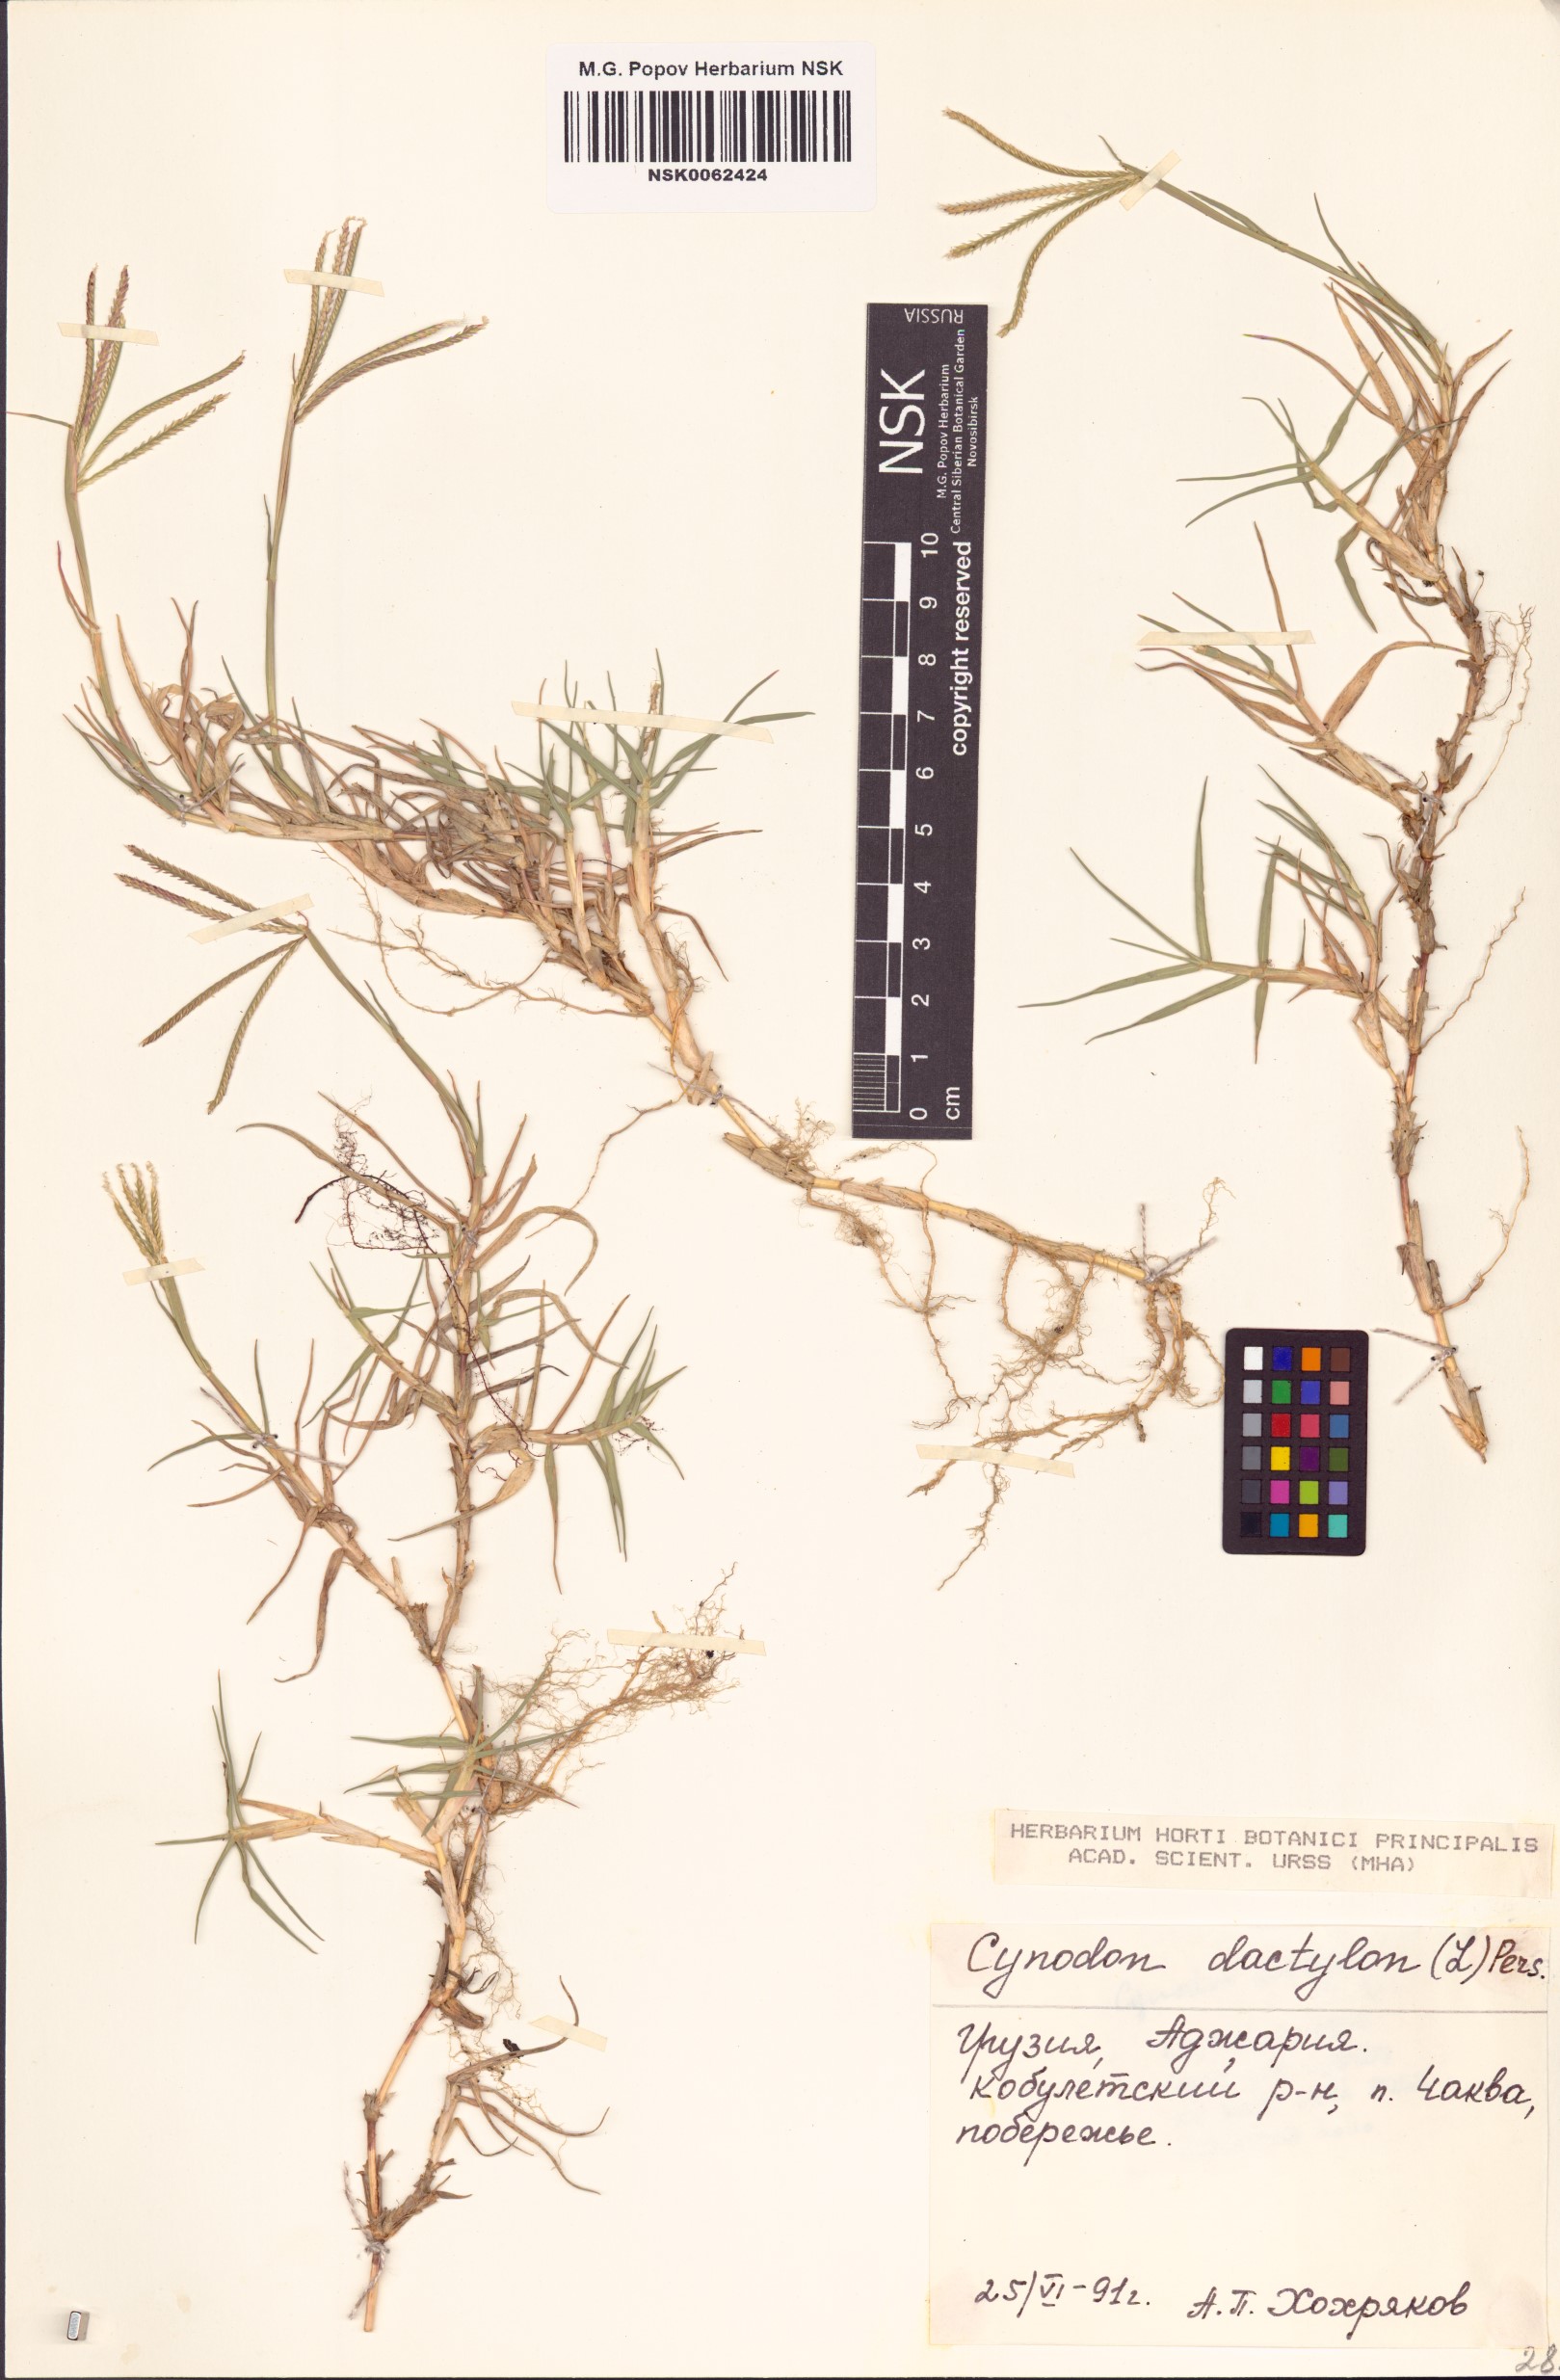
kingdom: Plantae
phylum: Tracheophyta
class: Liliopsida
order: Poales
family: Poaceae
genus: Cynodon
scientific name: Cynodon dactylon
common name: Bermuda grass
